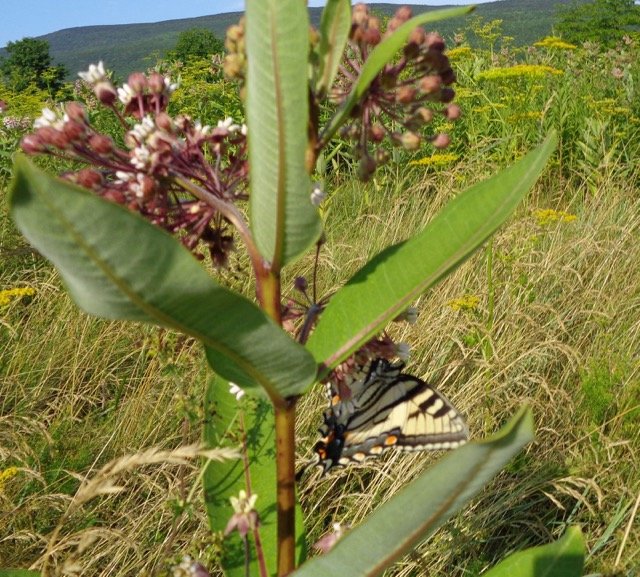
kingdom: Animalia
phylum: Arthropoda
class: Insecta
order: Lepidoptera
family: Papilionidae
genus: Pterourus
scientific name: Pterourus glaucus
